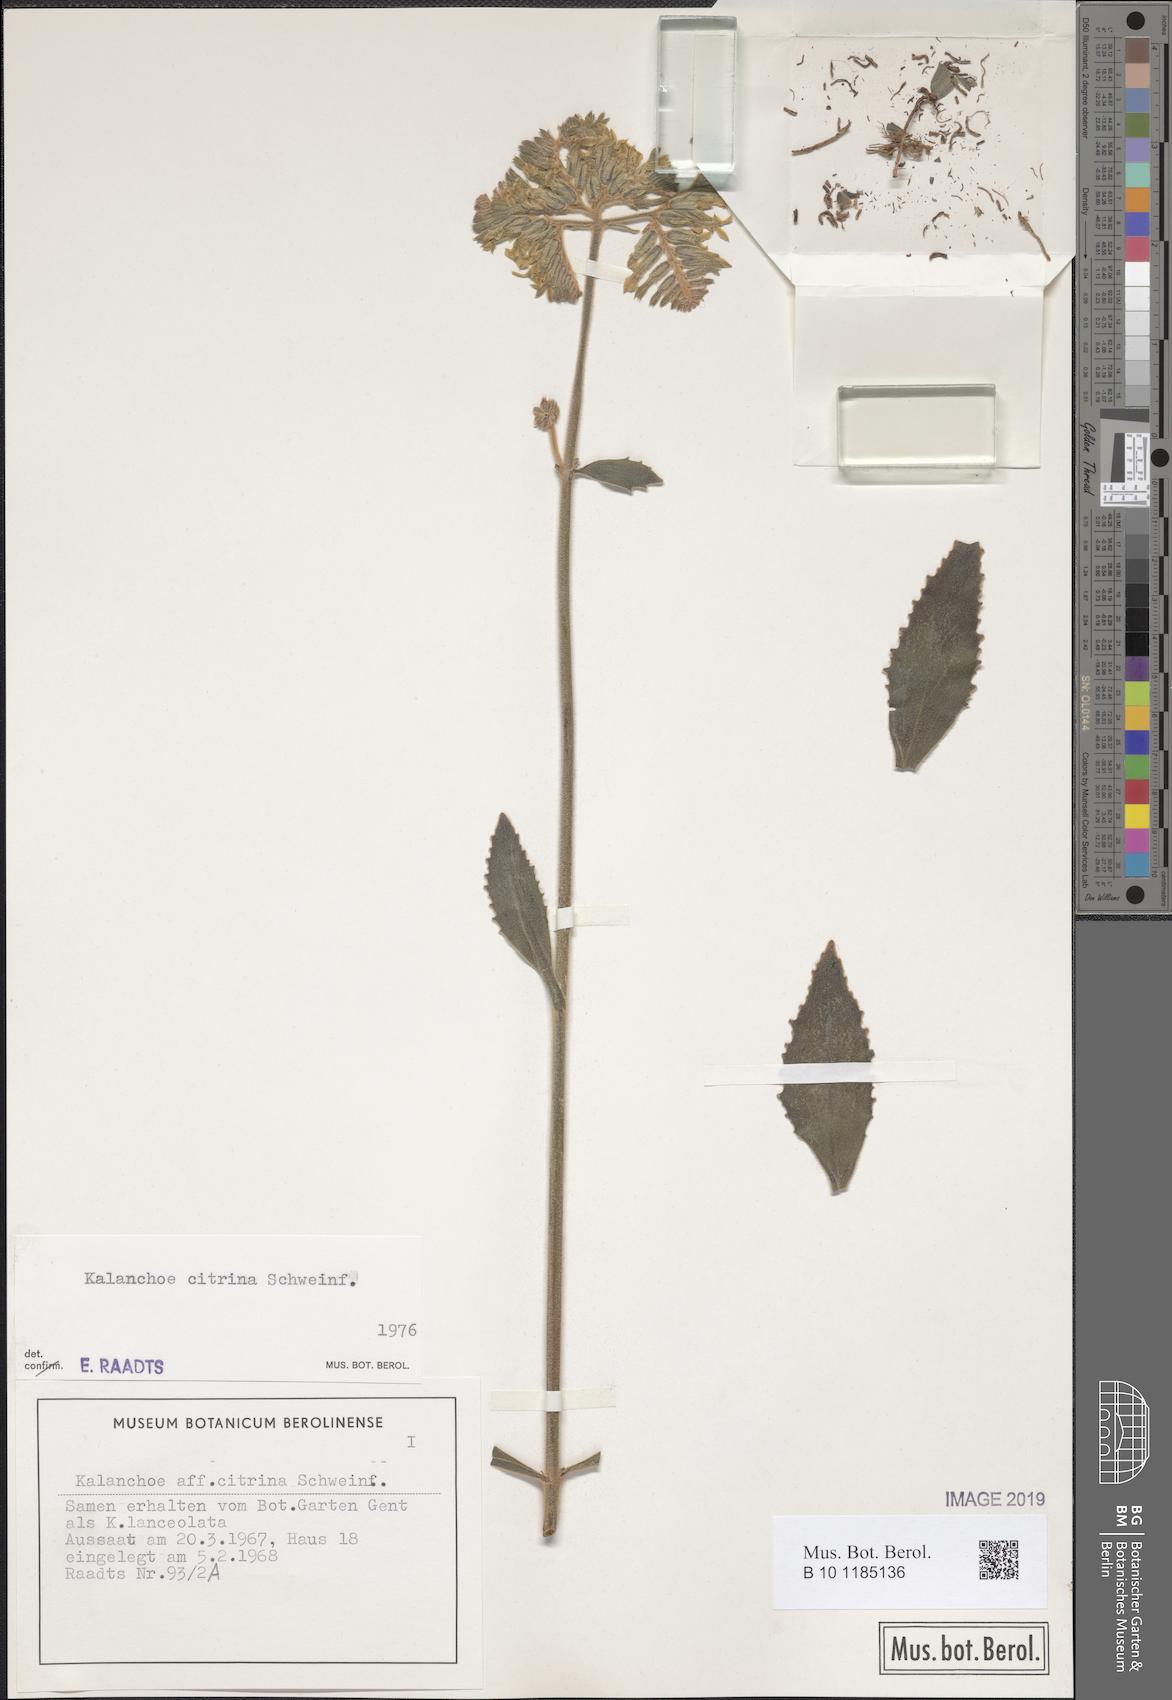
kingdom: Plantae
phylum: Tracheophyta
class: Magnoliopsida
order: Saxifragales
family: Crassulaceae
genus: Kalanchoe
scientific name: Kalanchoe citrina
